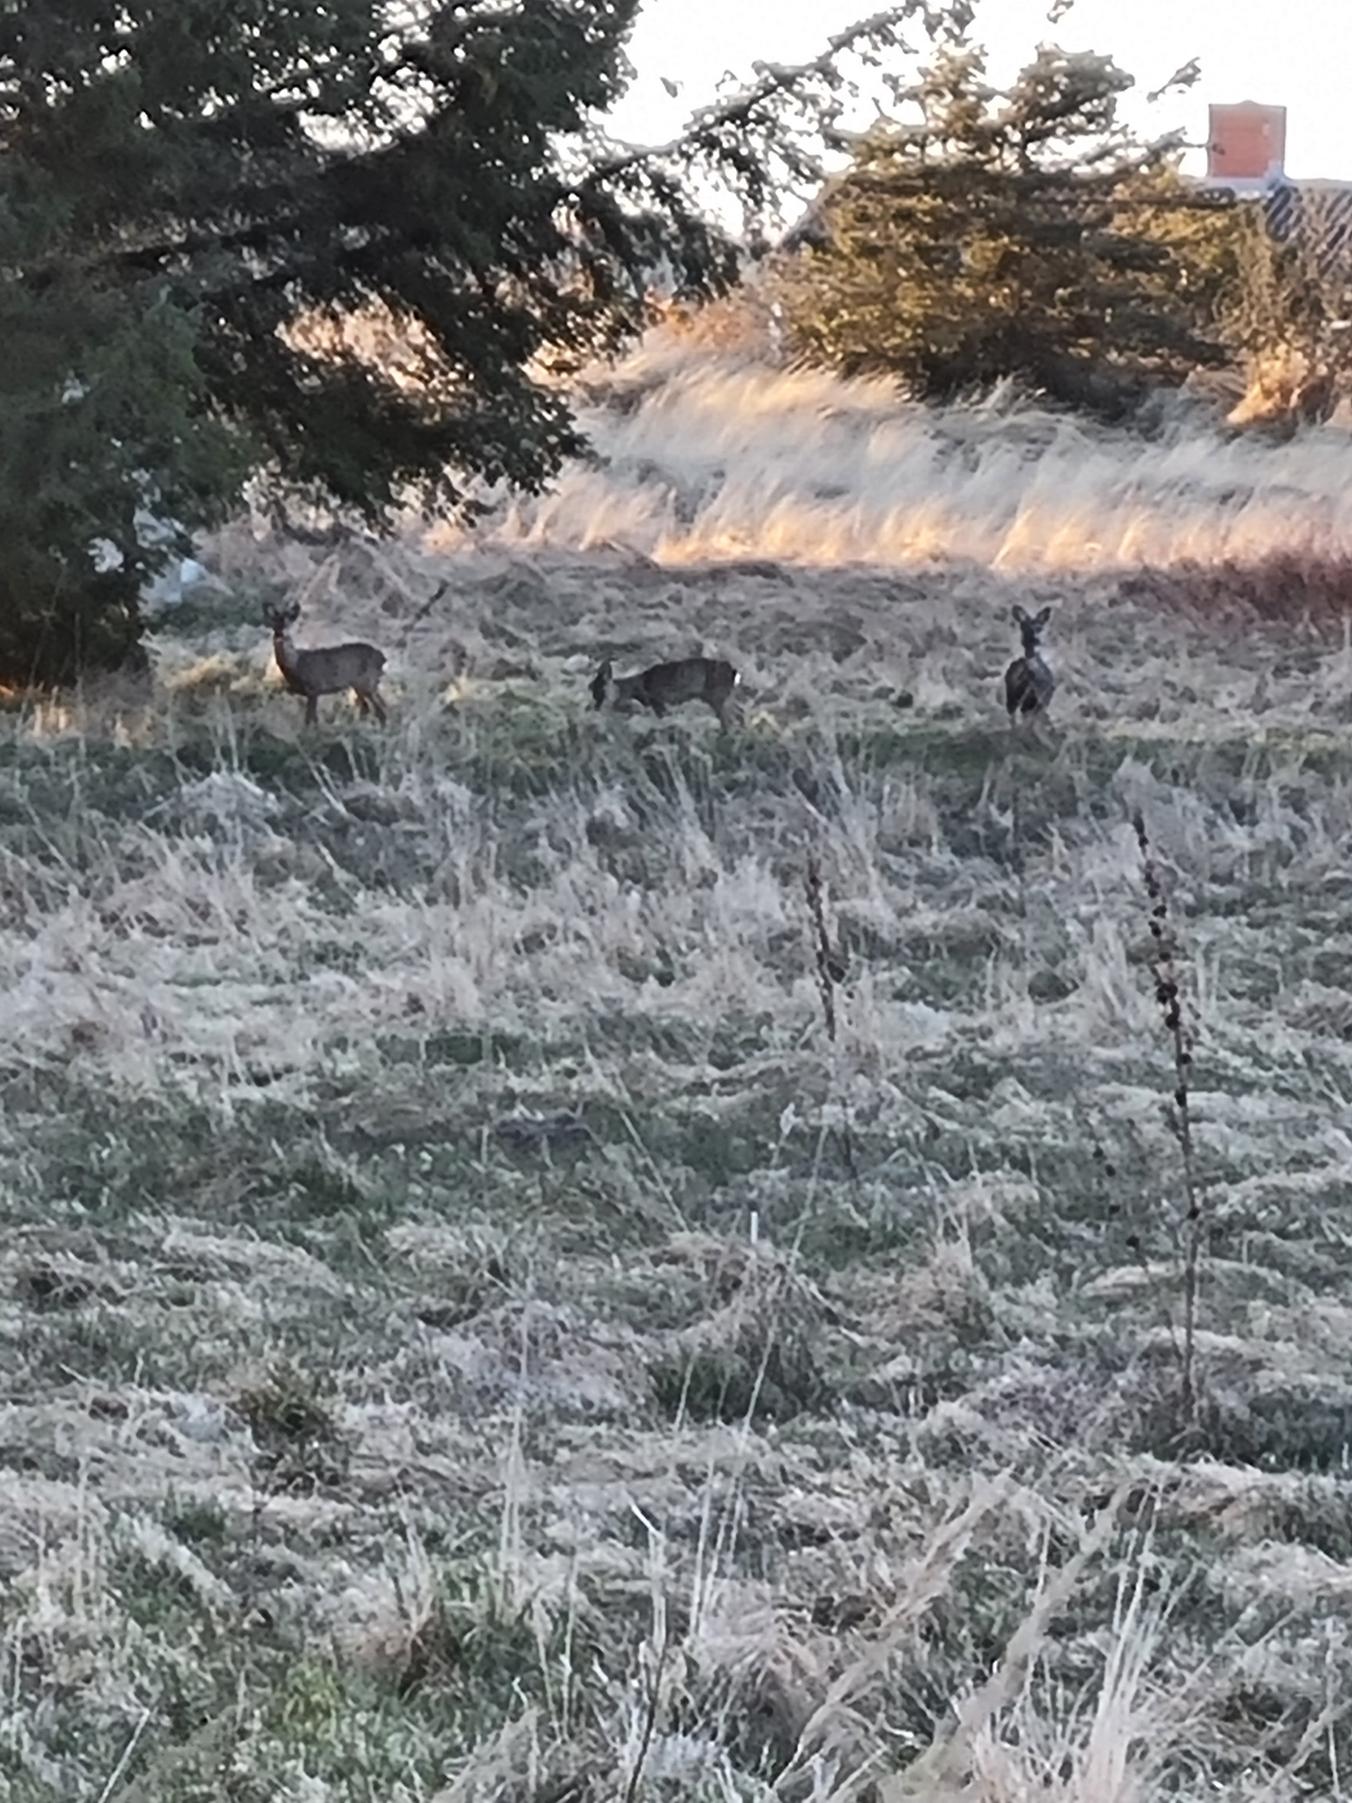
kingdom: Animalia
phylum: Chordata
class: Mammalia
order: Artiodactyla
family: Cervidae
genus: Capreolus
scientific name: Capreolus capreolus
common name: Rådyr
